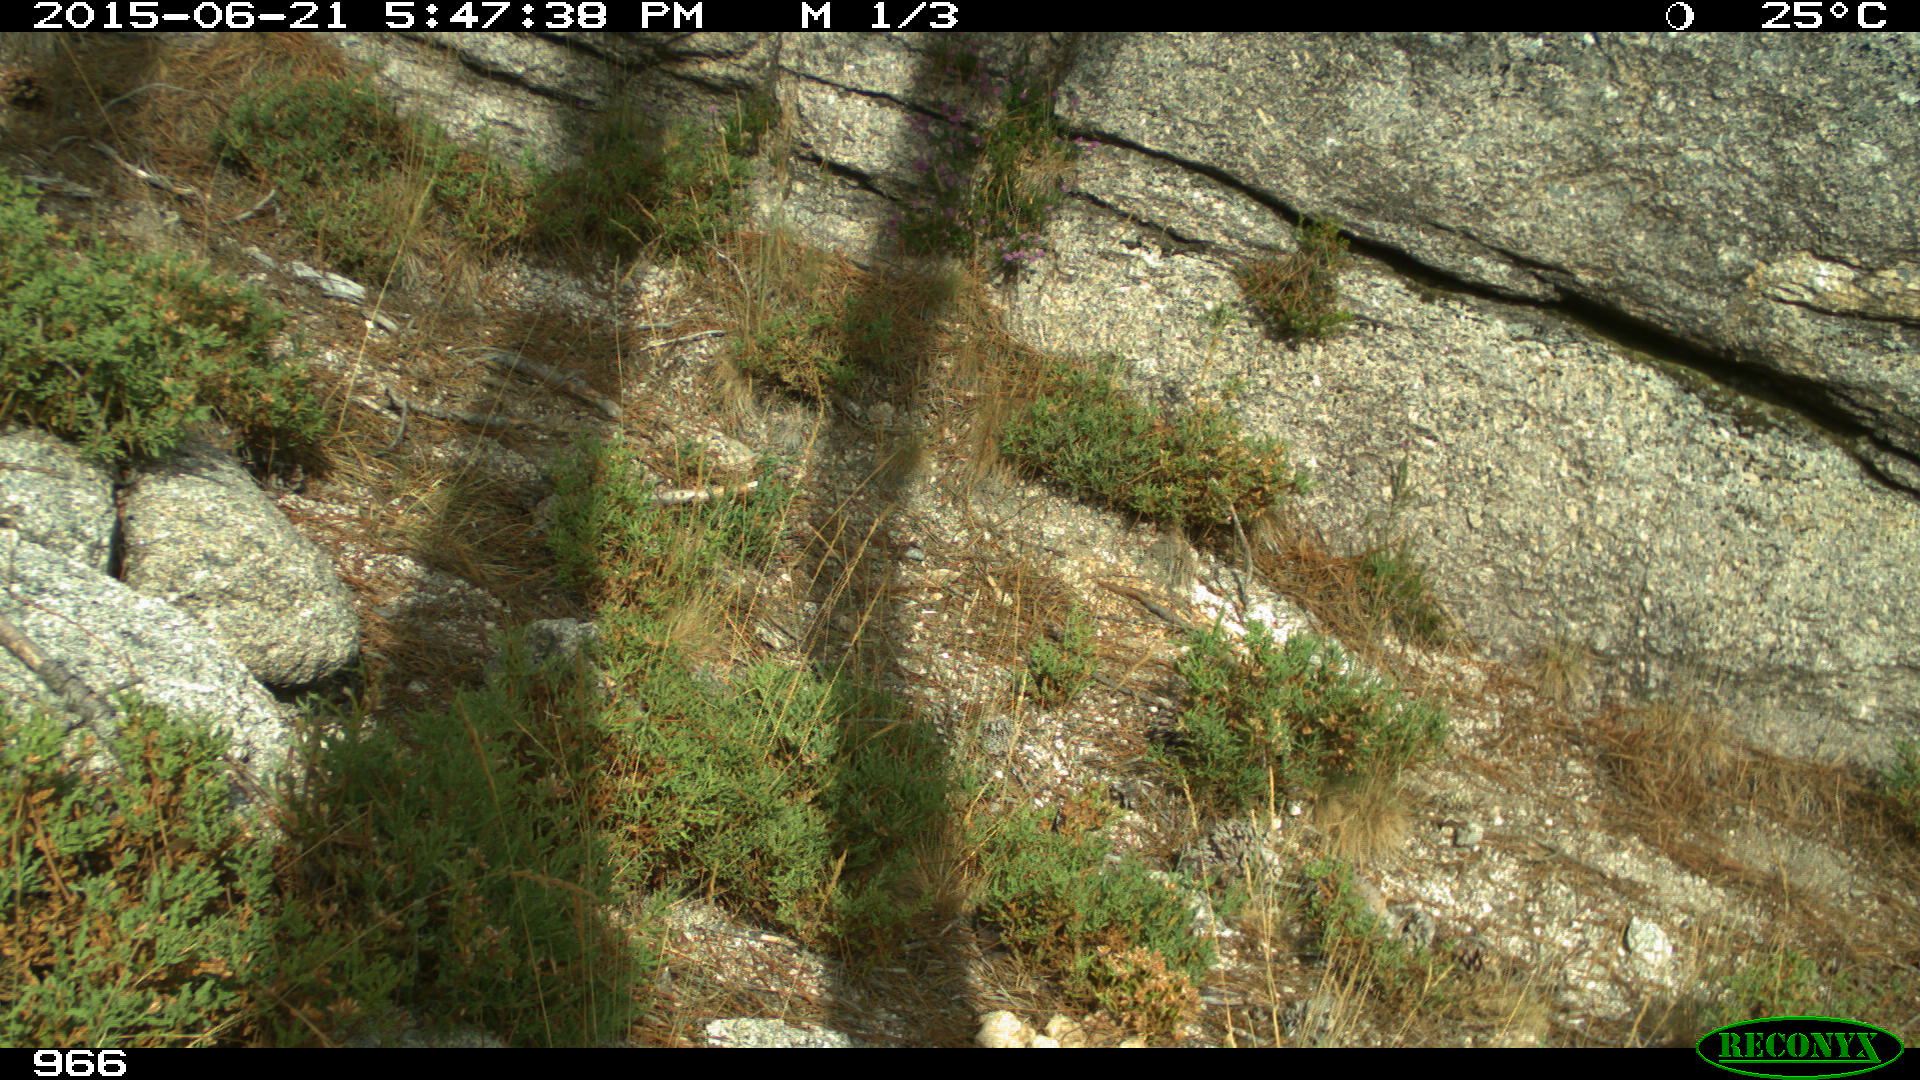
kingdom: Animalia
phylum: Chordata
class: Mammalia
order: Artiodactyla
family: Bovidae
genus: Bos
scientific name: Bos taurus
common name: Domesticated cattle
